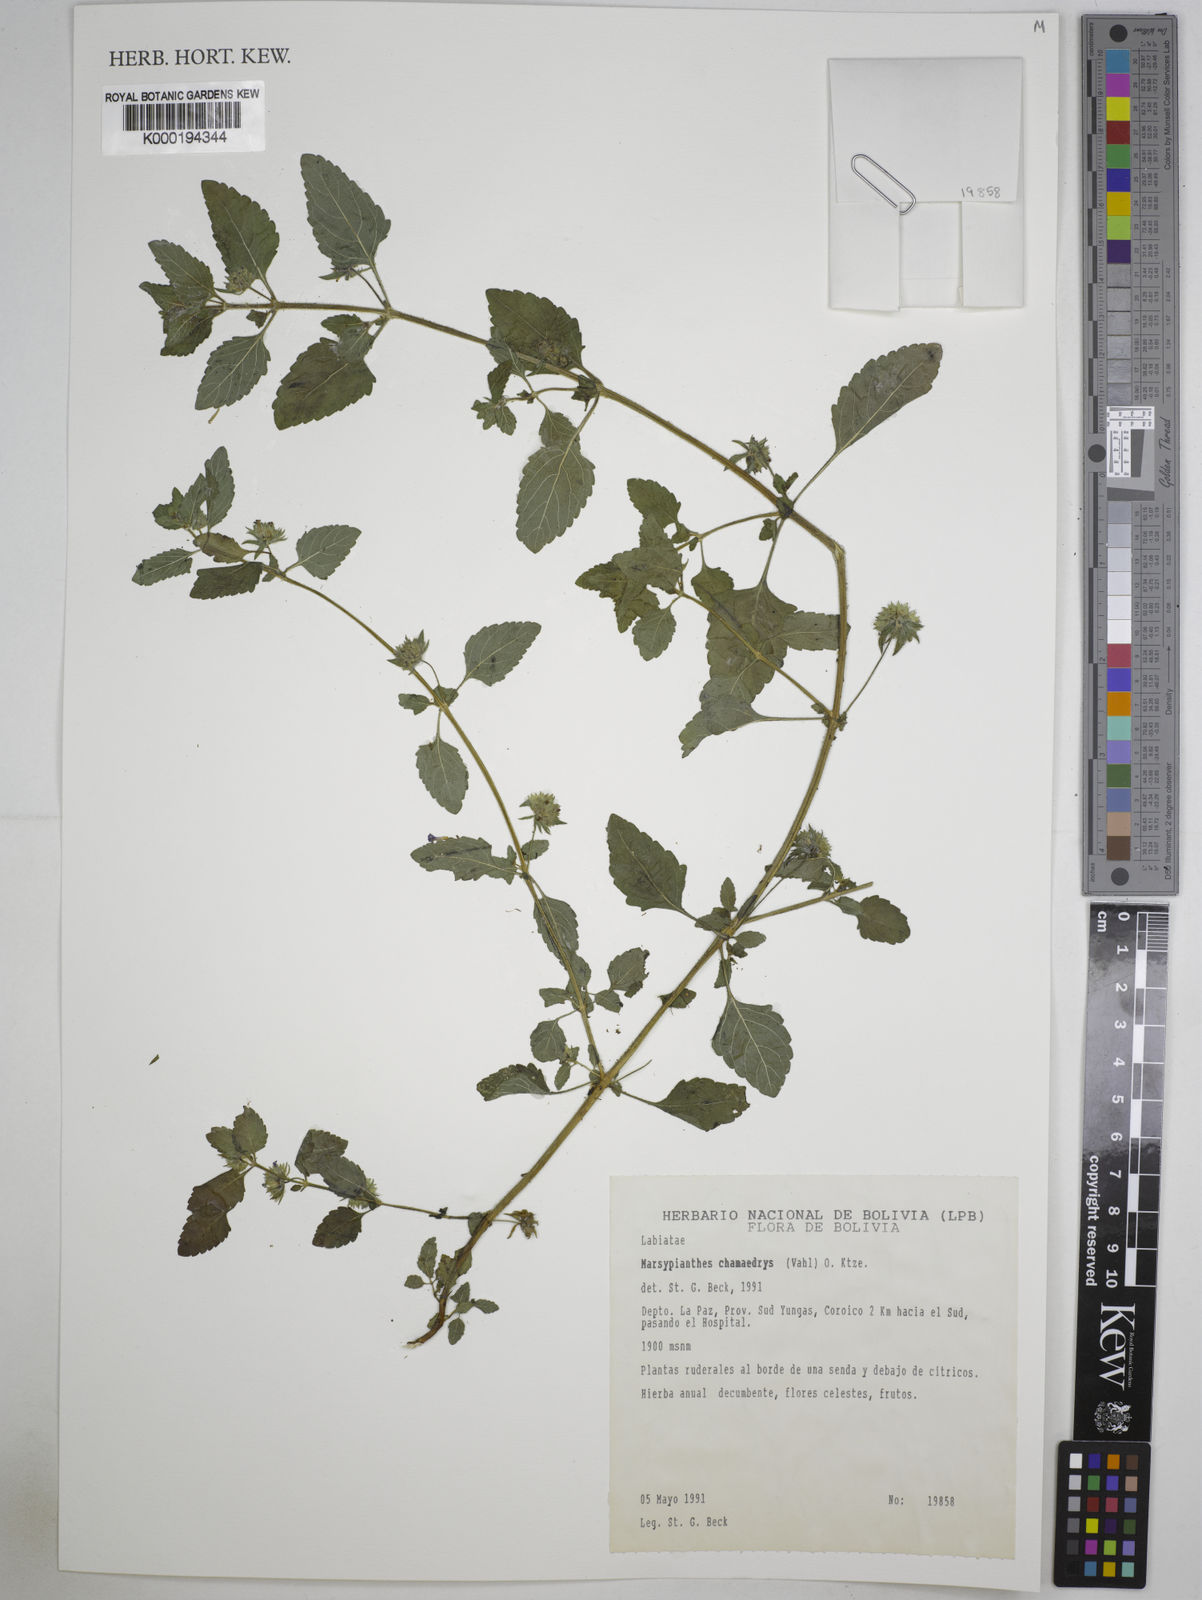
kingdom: Plantae
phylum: Tracheophyta
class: Magnoliopsida
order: Lamiales
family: Lamiaceae
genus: Marsypianthes
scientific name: Marsypianthes chamaedrys
